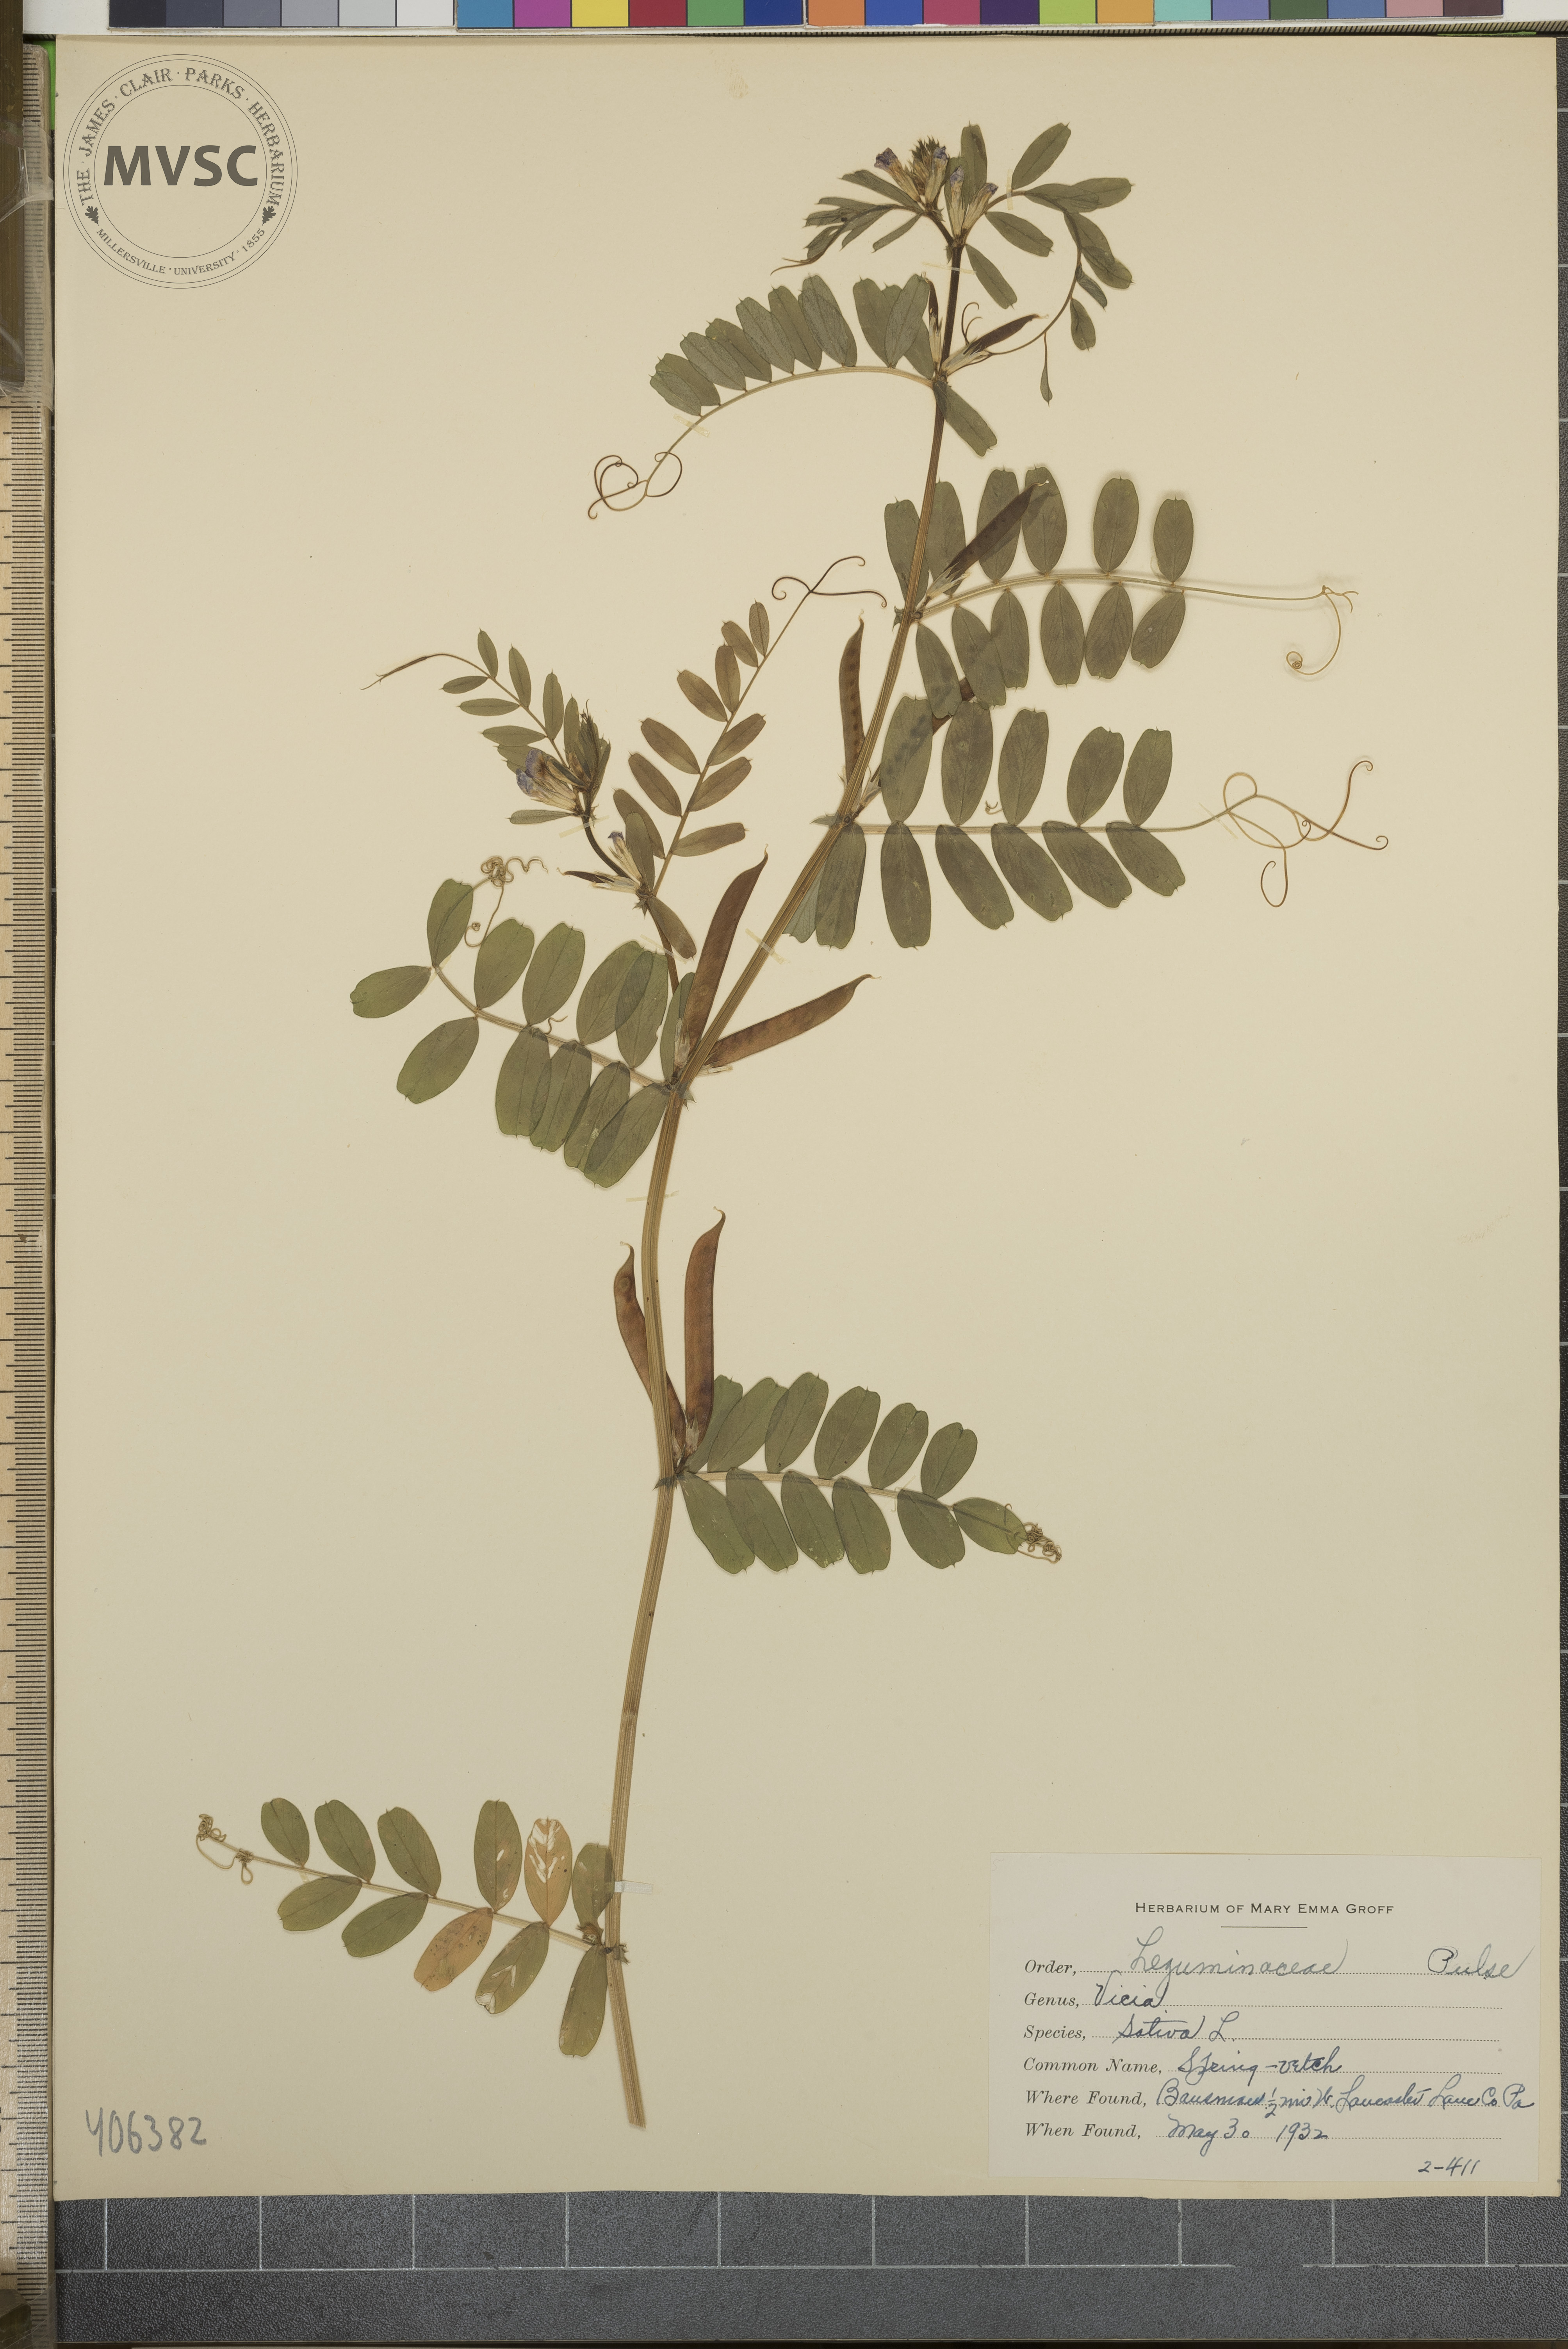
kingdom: Plantae
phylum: Tracheophyta
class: Magnoliopsida
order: Fabales
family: Fabaceae
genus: Vicia
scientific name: Vicia sativa
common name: Spring-Vetch
